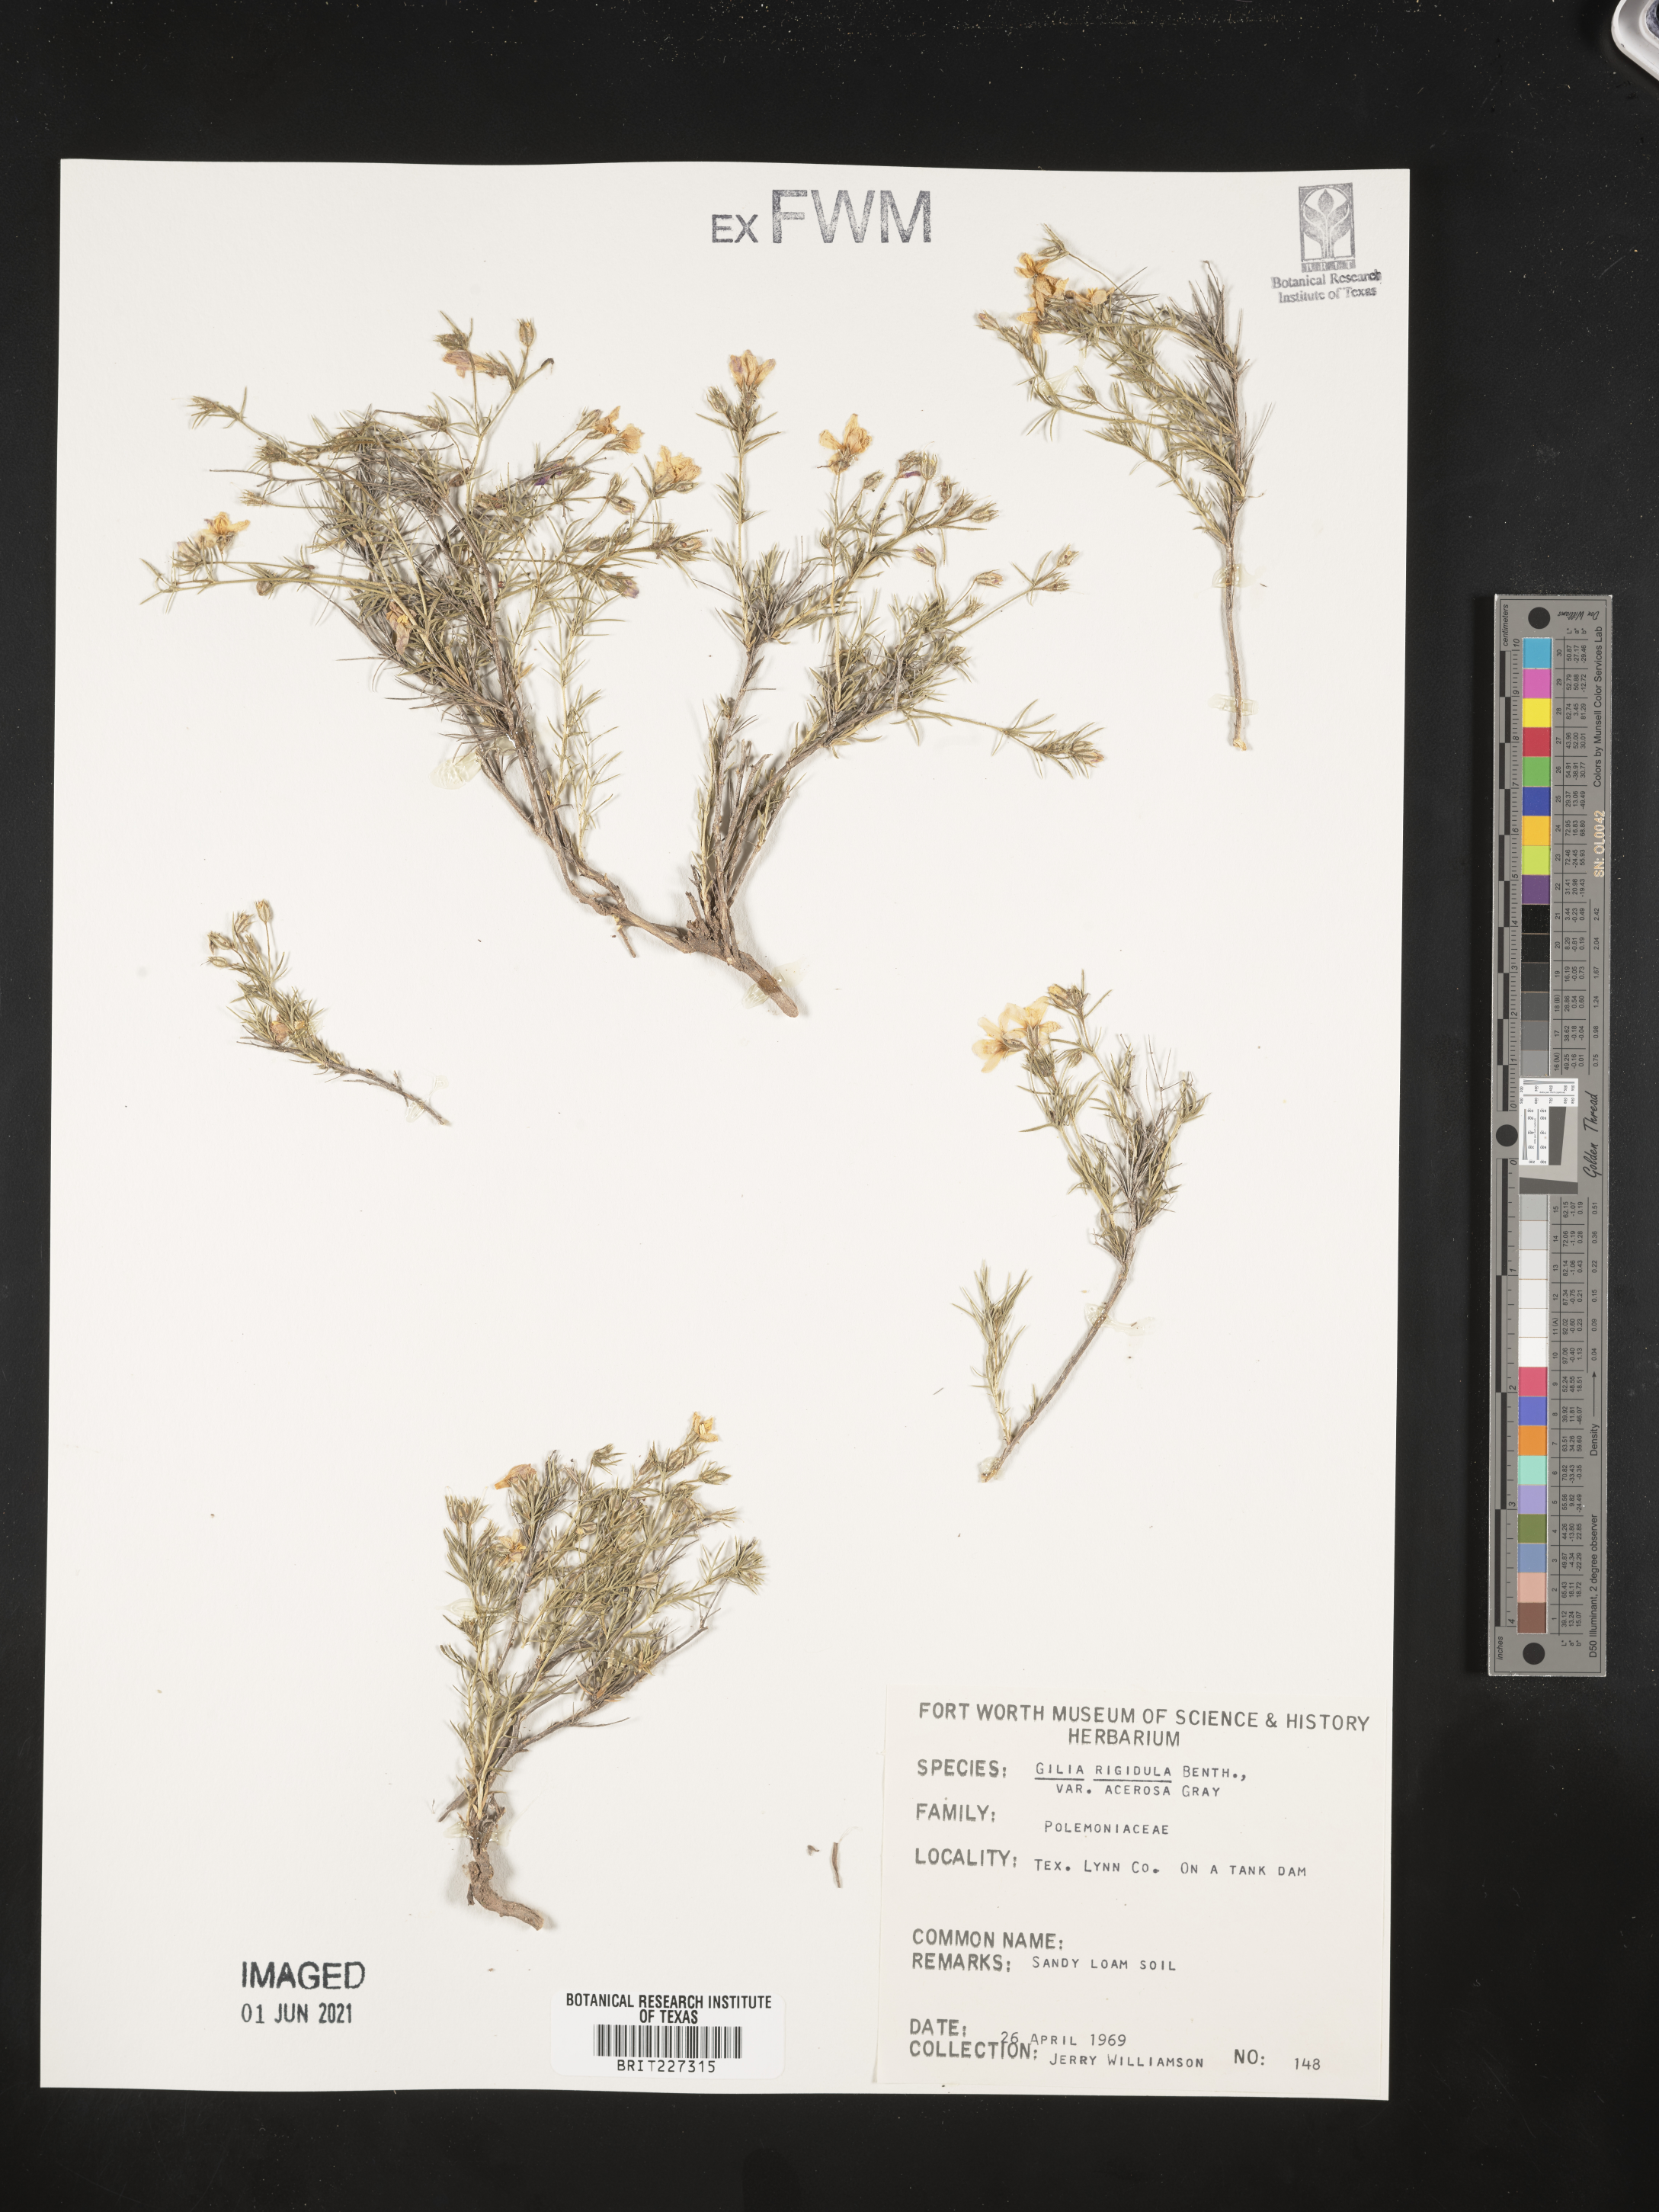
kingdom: Plantae
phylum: Tracheophyta
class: Magnoliopsida
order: Ericales
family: Polemoniaceae
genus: Giliastrum
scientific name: Giliastrum acerosum
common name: Bluebowls
